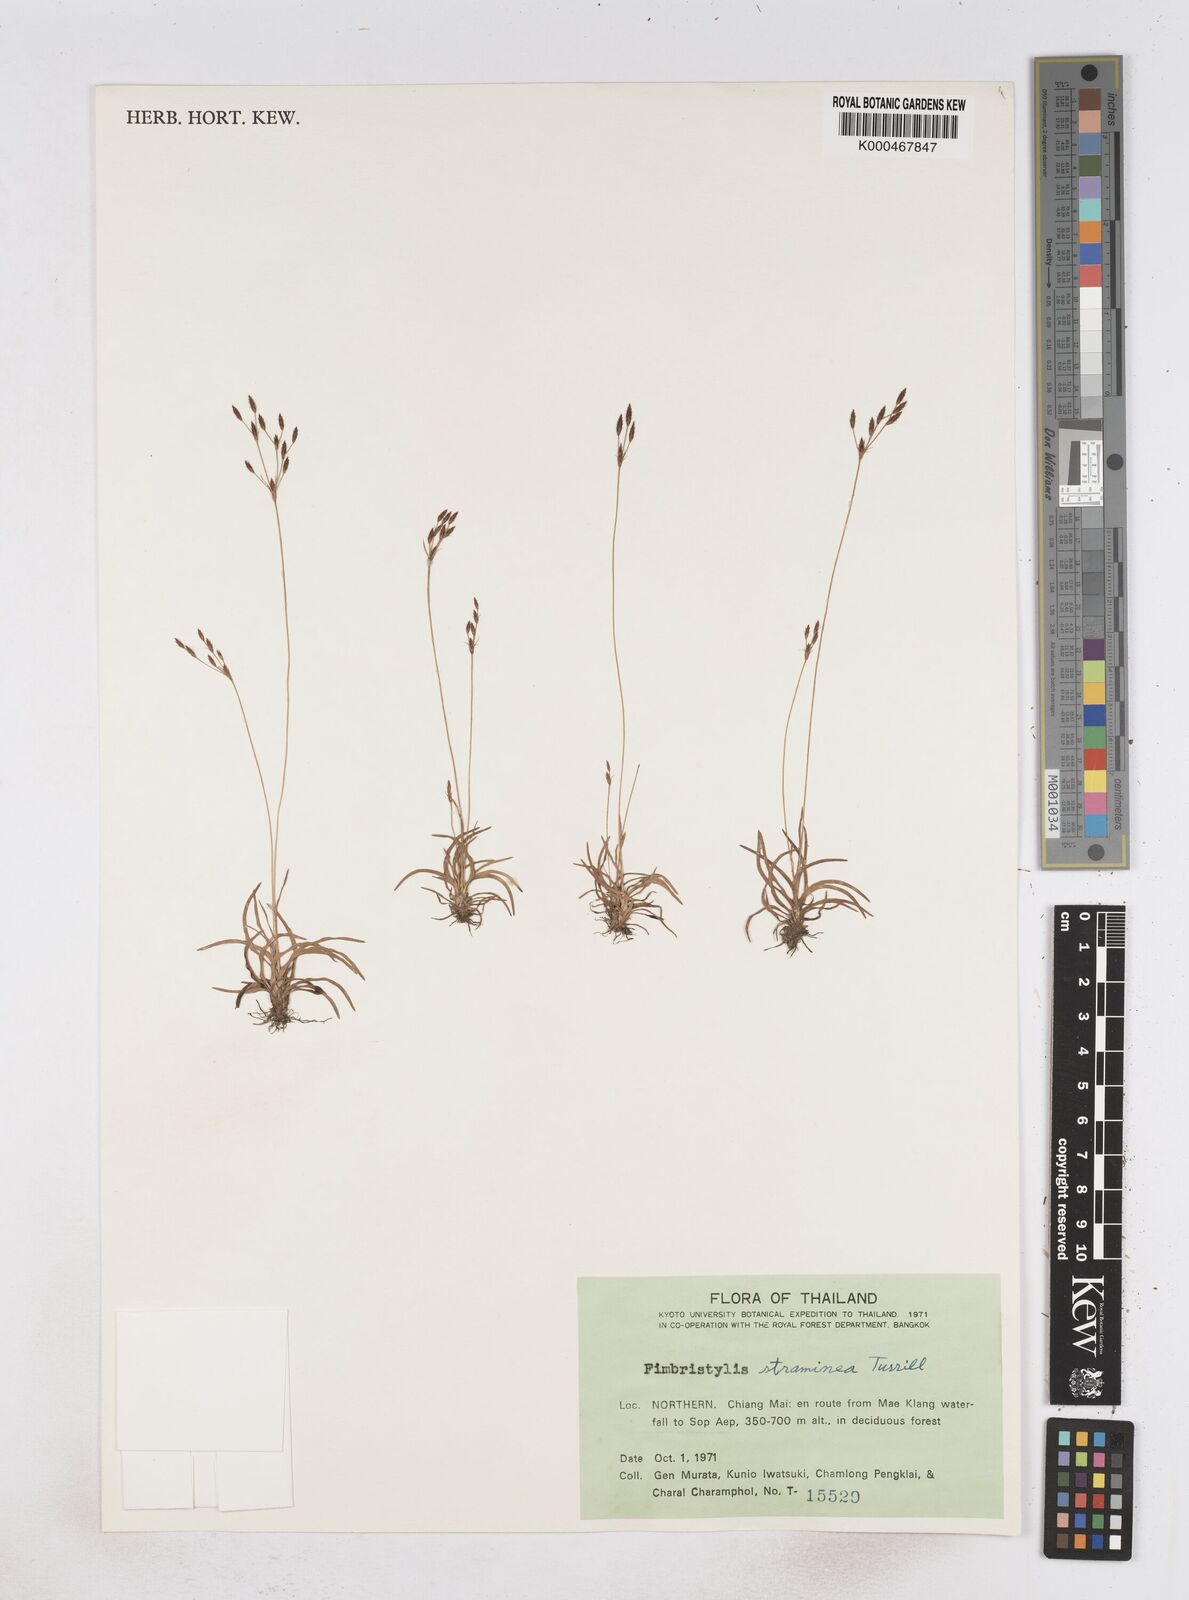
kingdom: Plantae
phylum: Tracheophyta
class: Liliopsida
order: Poales
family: Cyperaceae
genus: Fimbristylis
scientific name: Fimbristylis straminea
